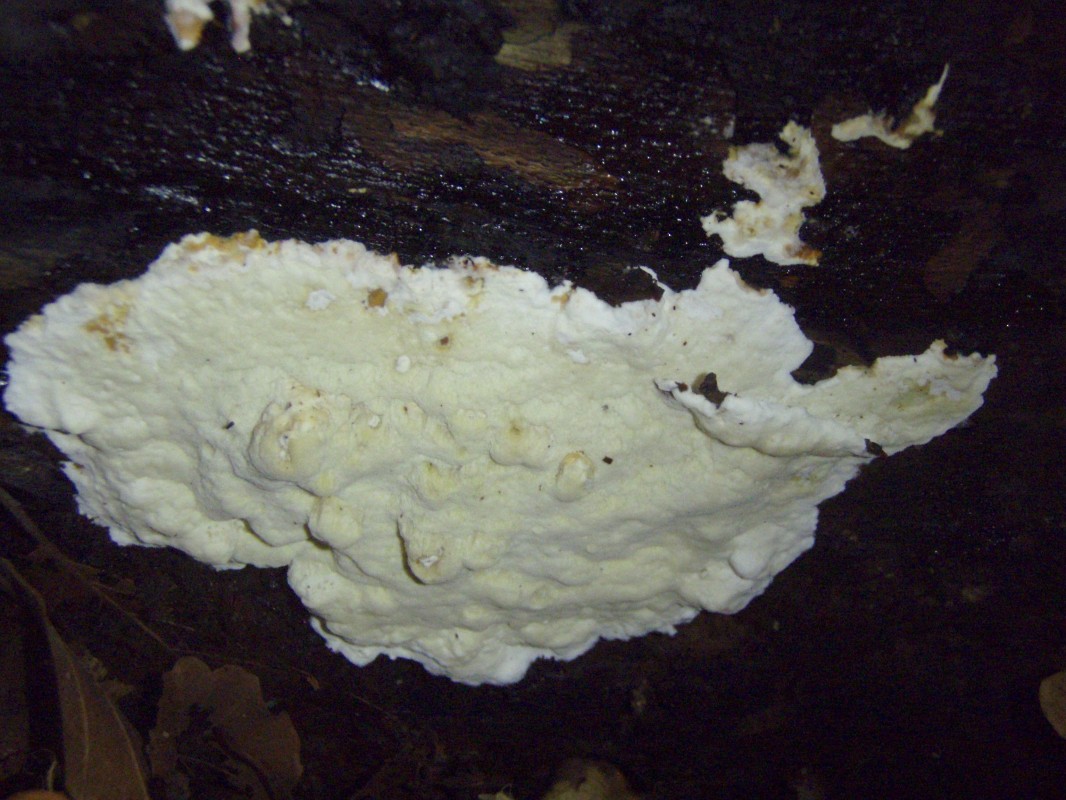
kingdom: Fungi
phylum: Basidiomycota
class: Agaricomycetes
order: Polyporales
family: Irpicaceae
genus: Gloeoporus
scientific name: Gloeoporus pannocinctus
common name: grøngul foldporesvamp
